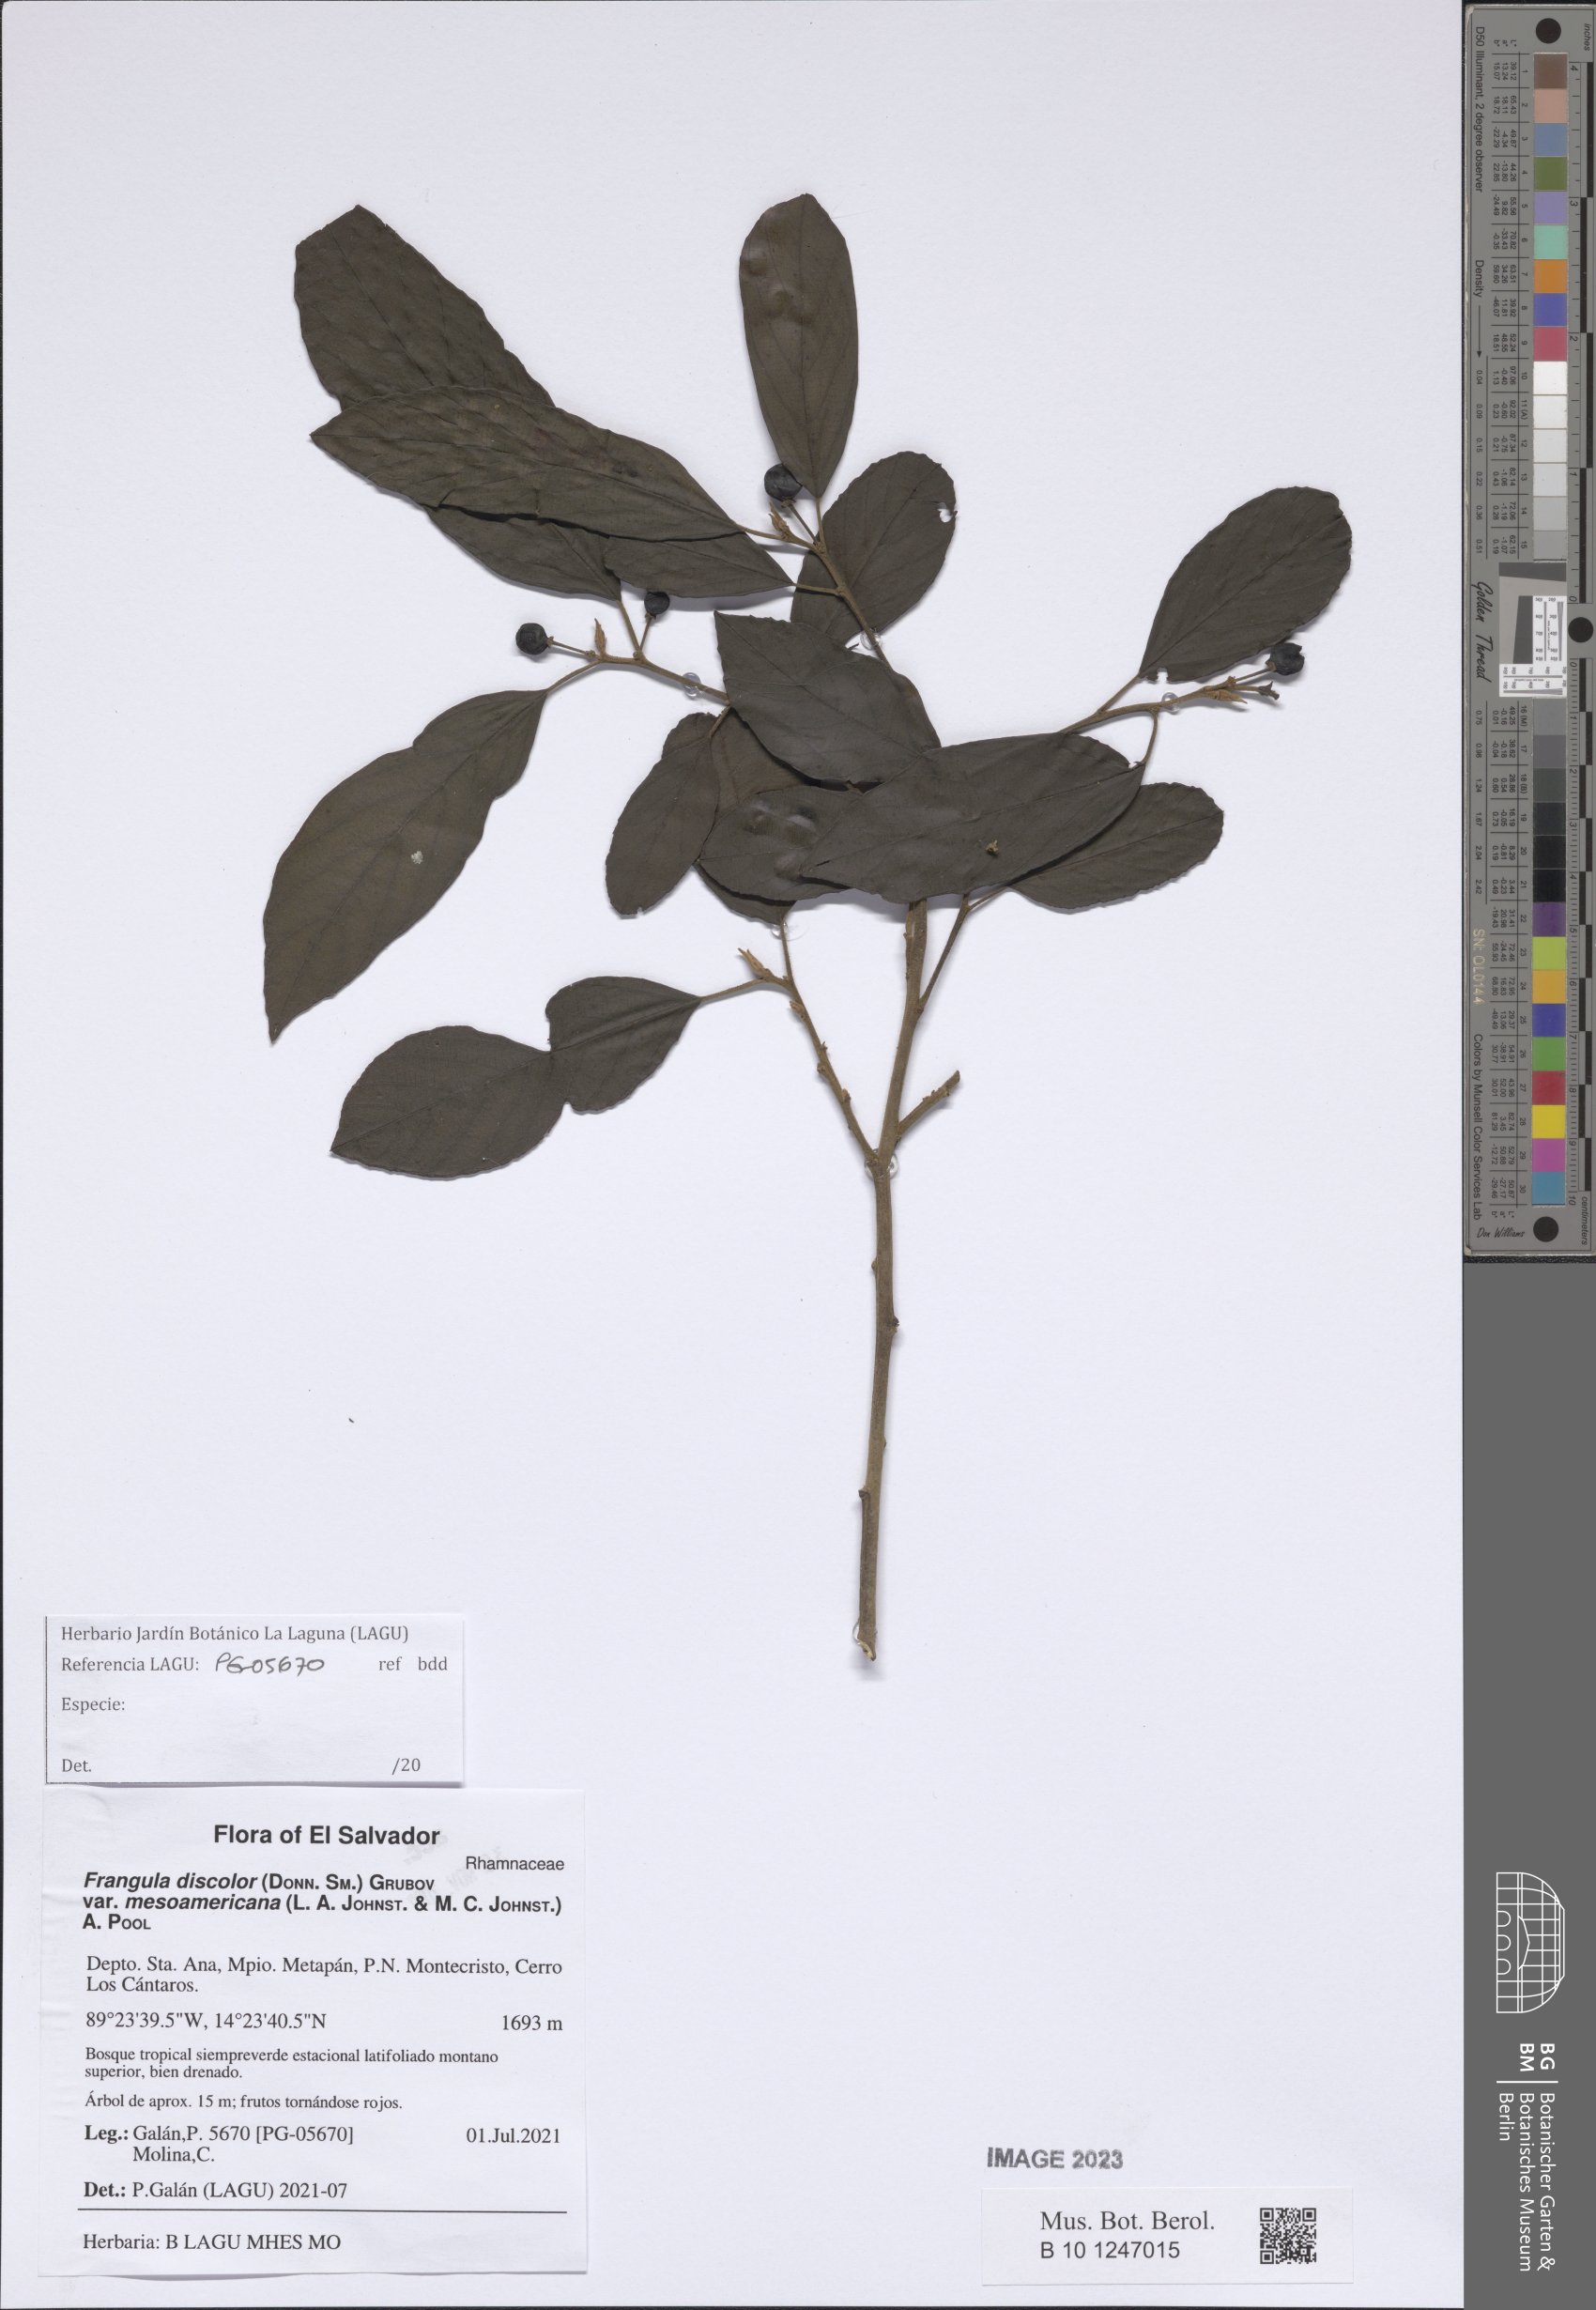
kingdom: Plantae
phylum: Tracheophyta
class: Magnoliopsida
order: Rosales
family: Rhamnaceae
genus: Frangula
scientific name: Frangula discolor
